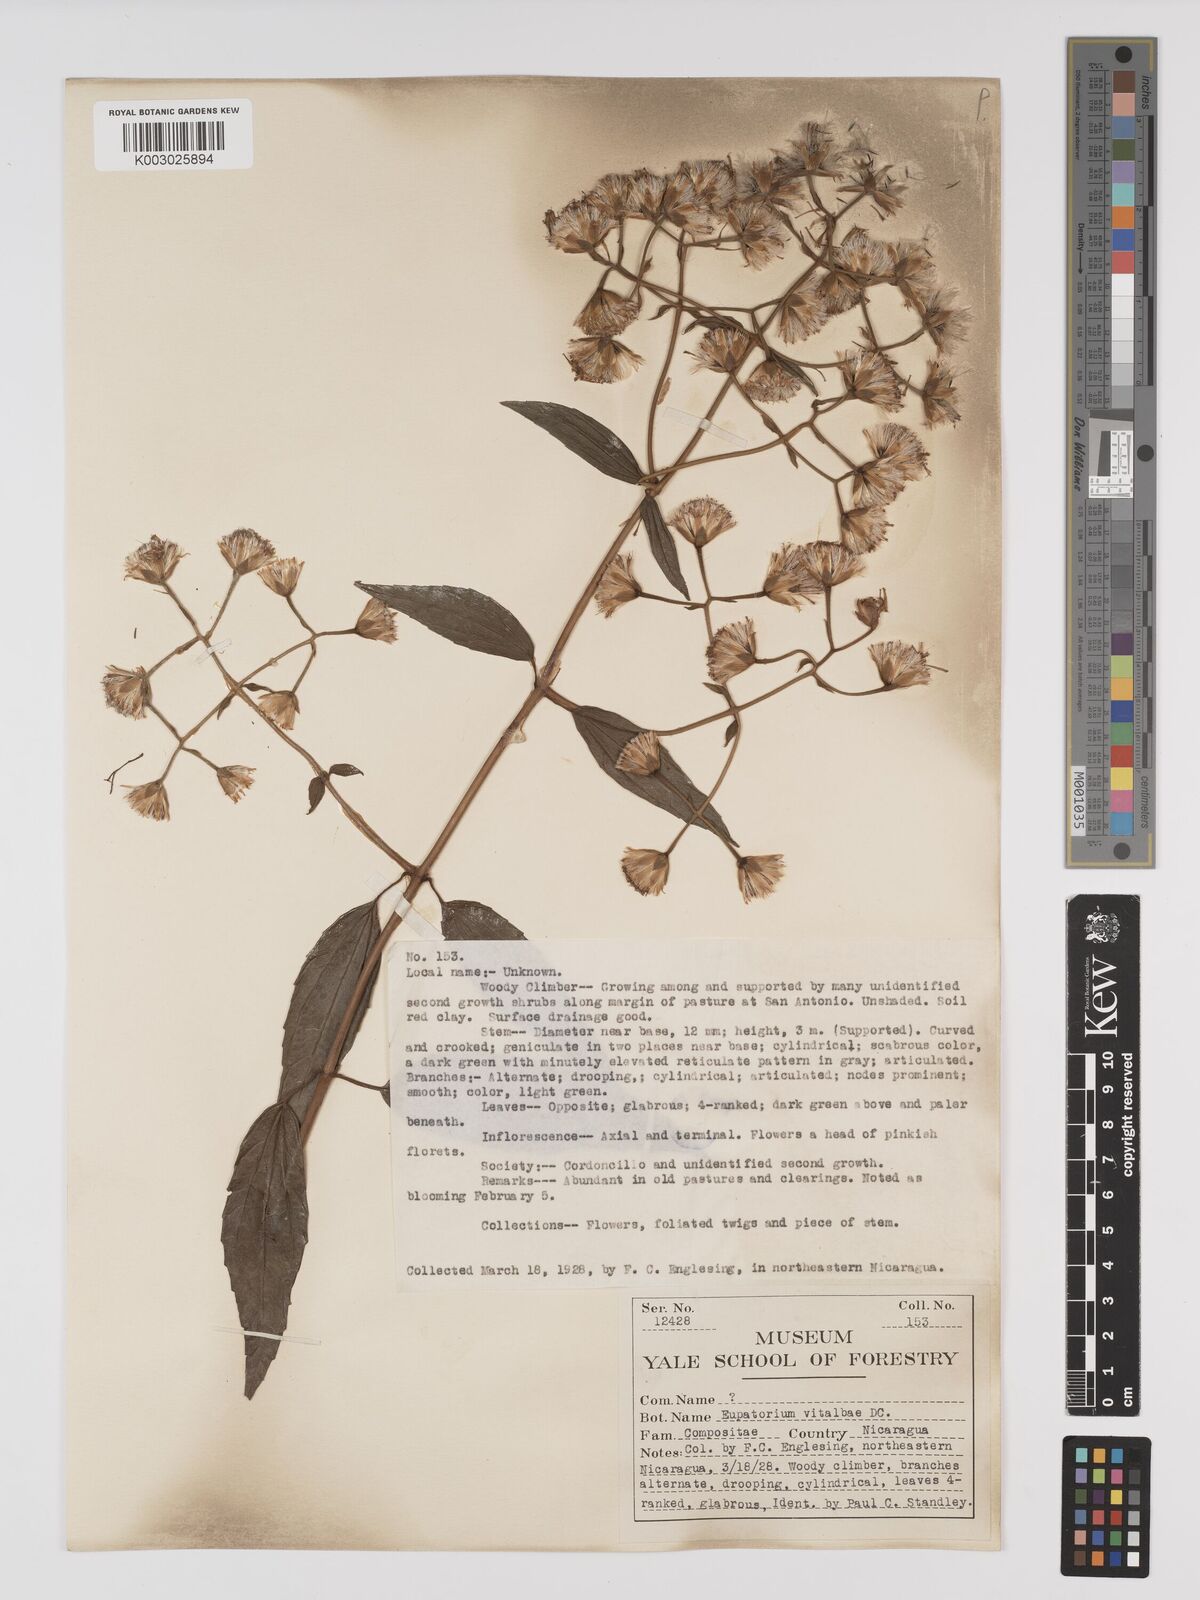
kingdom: Plantae
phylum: Tracheophyta
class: Magnoliopsida
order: Asterales
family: Asteraceae
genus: Heterocondylus
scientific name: Heterocondylus vitalbae
